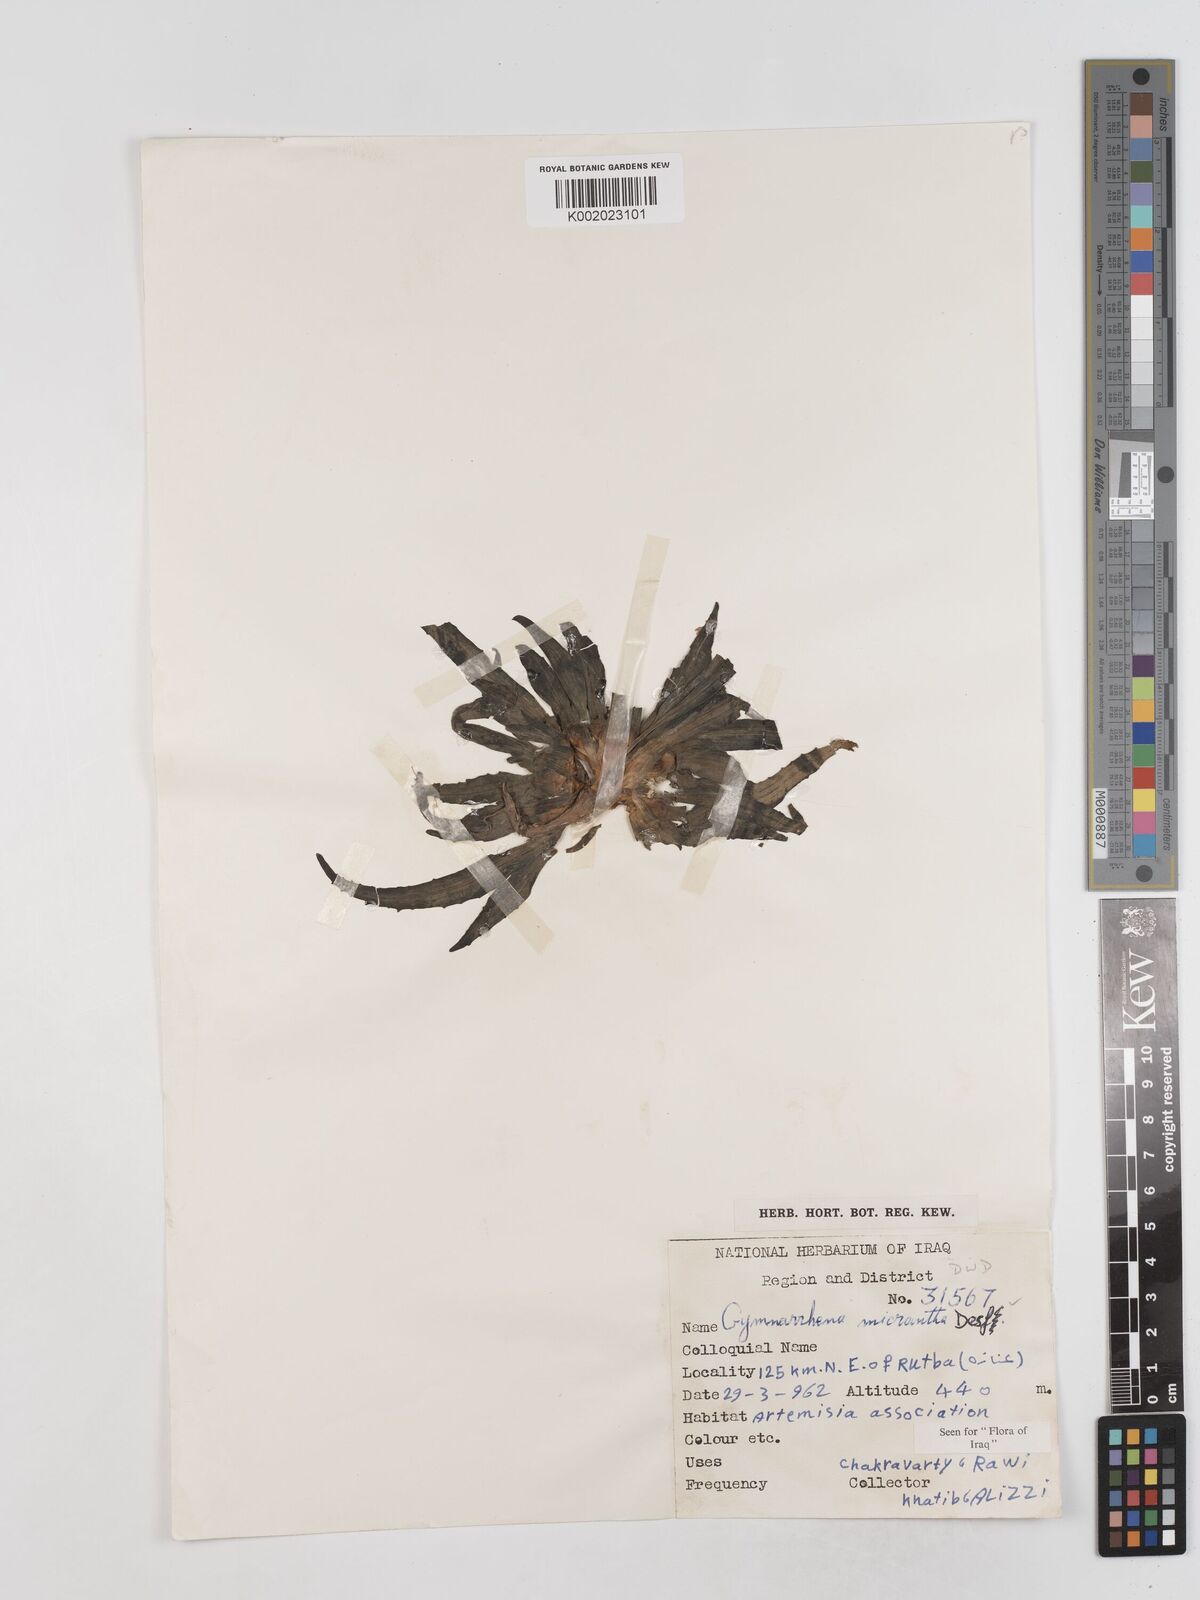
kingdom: Plantae
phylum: Tracheophyta
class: Magnoliopsida
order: Asterales
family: Asteraceae
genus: Gymnarrhena
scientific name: Gymnarrhena micrantha
